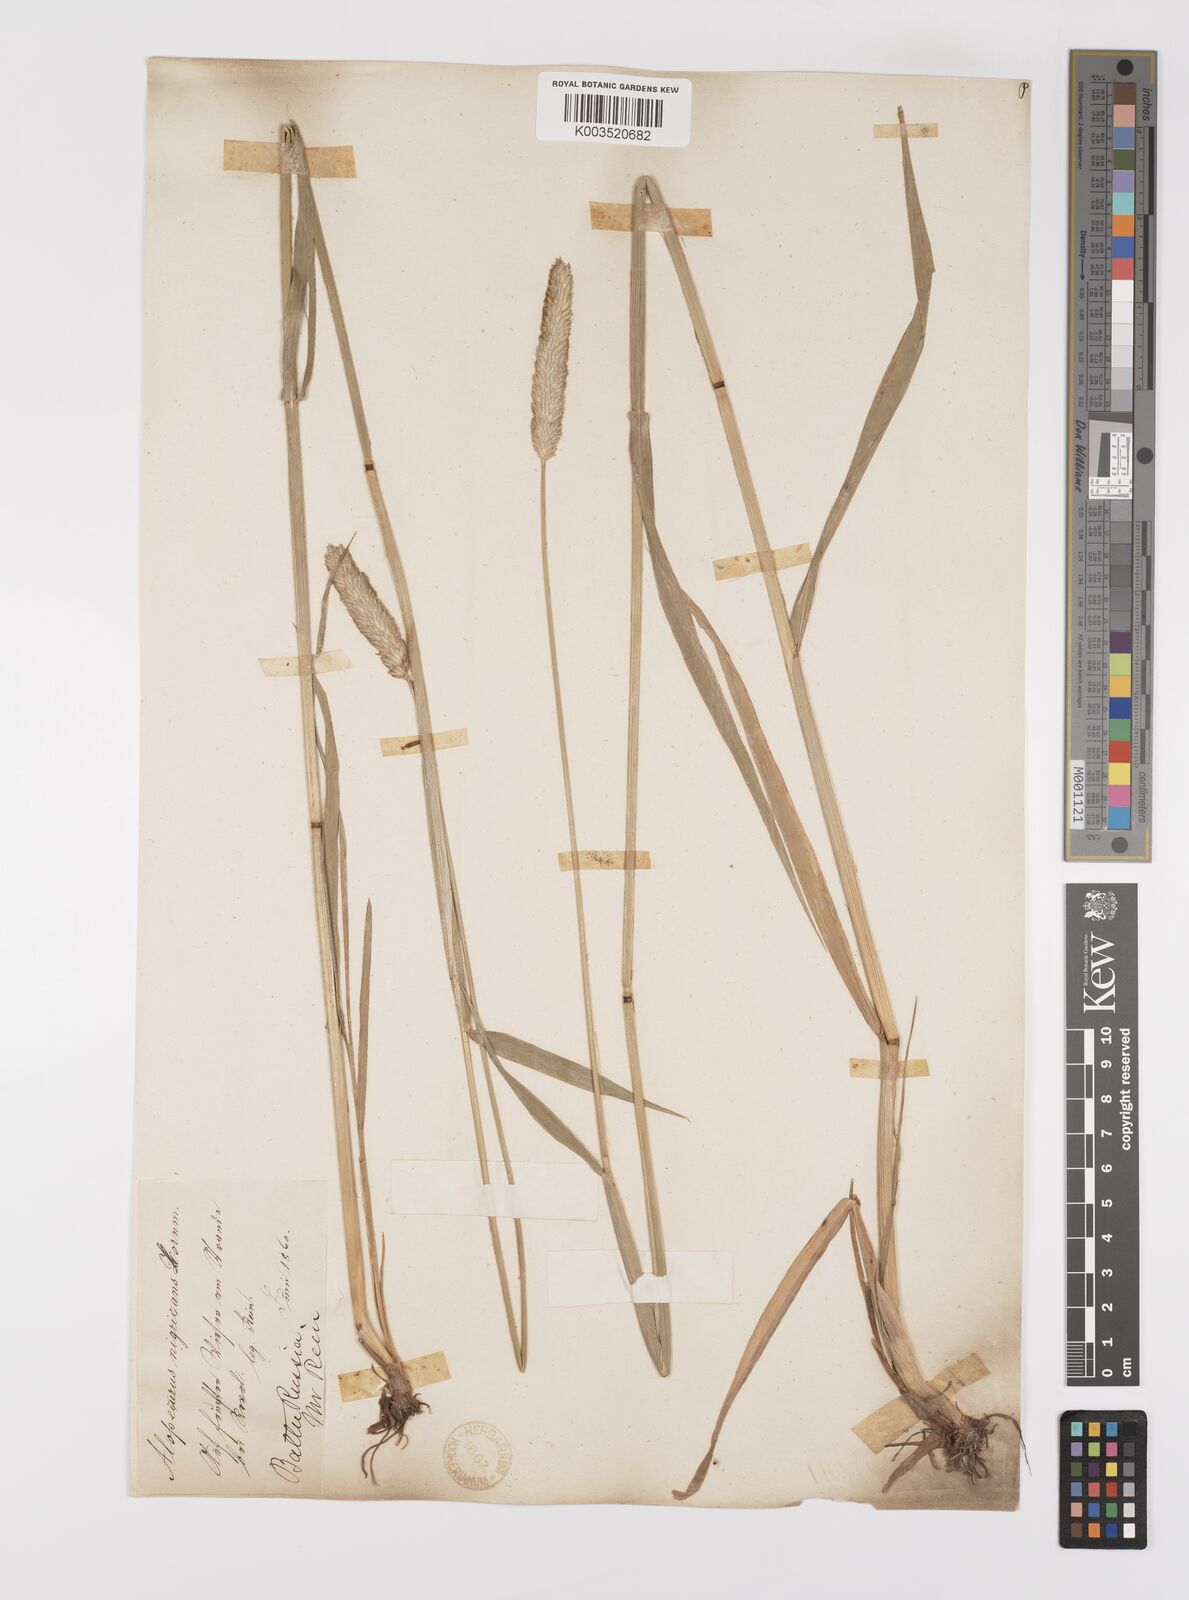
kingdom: Plantae
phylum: Tracheophyta
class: Liliopsida
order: Poales
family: Poaceae
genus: Alopecurus
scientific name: Alopecurus arundinaceus
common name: Creeping meadow foxtail
